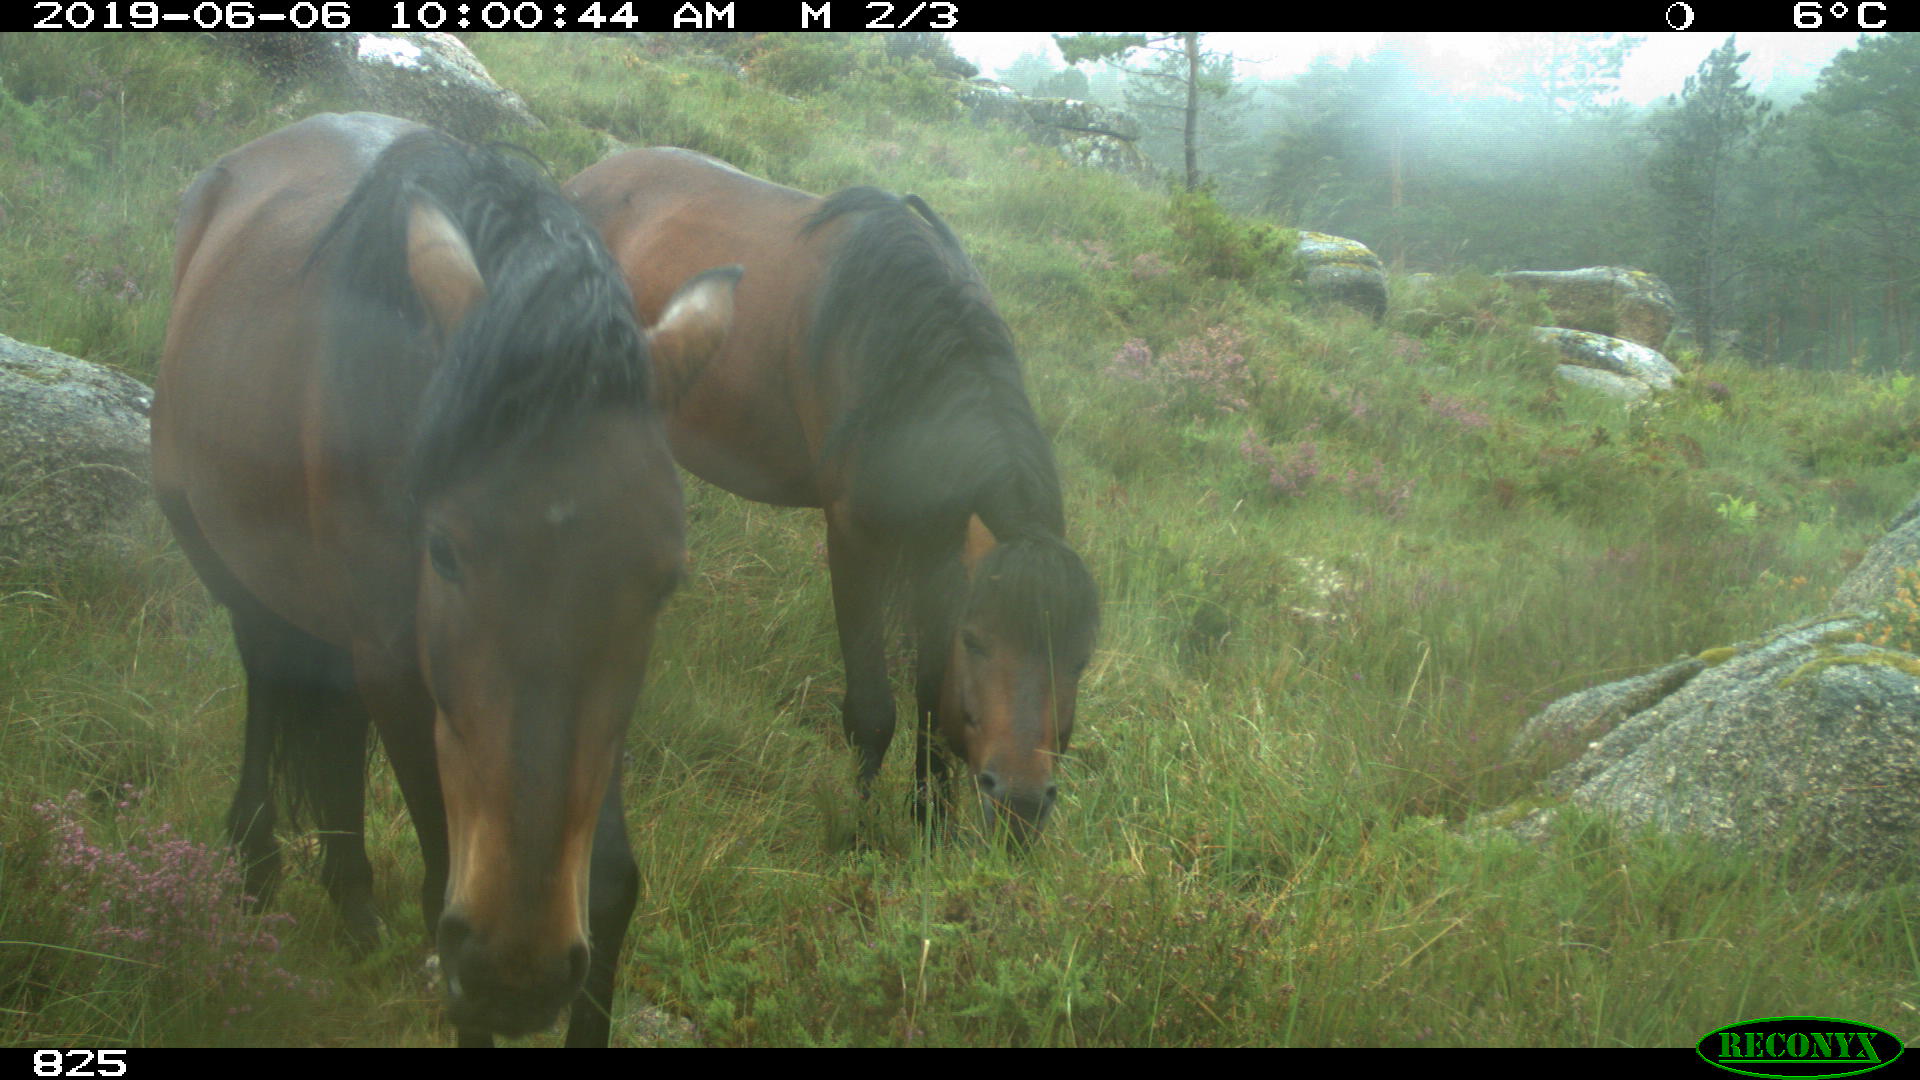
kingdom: Animalia
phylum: Chordata
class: Mammalia
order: Perissodactyla
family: Equidae
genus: Equus
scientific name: Equus caballus
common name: Horse
